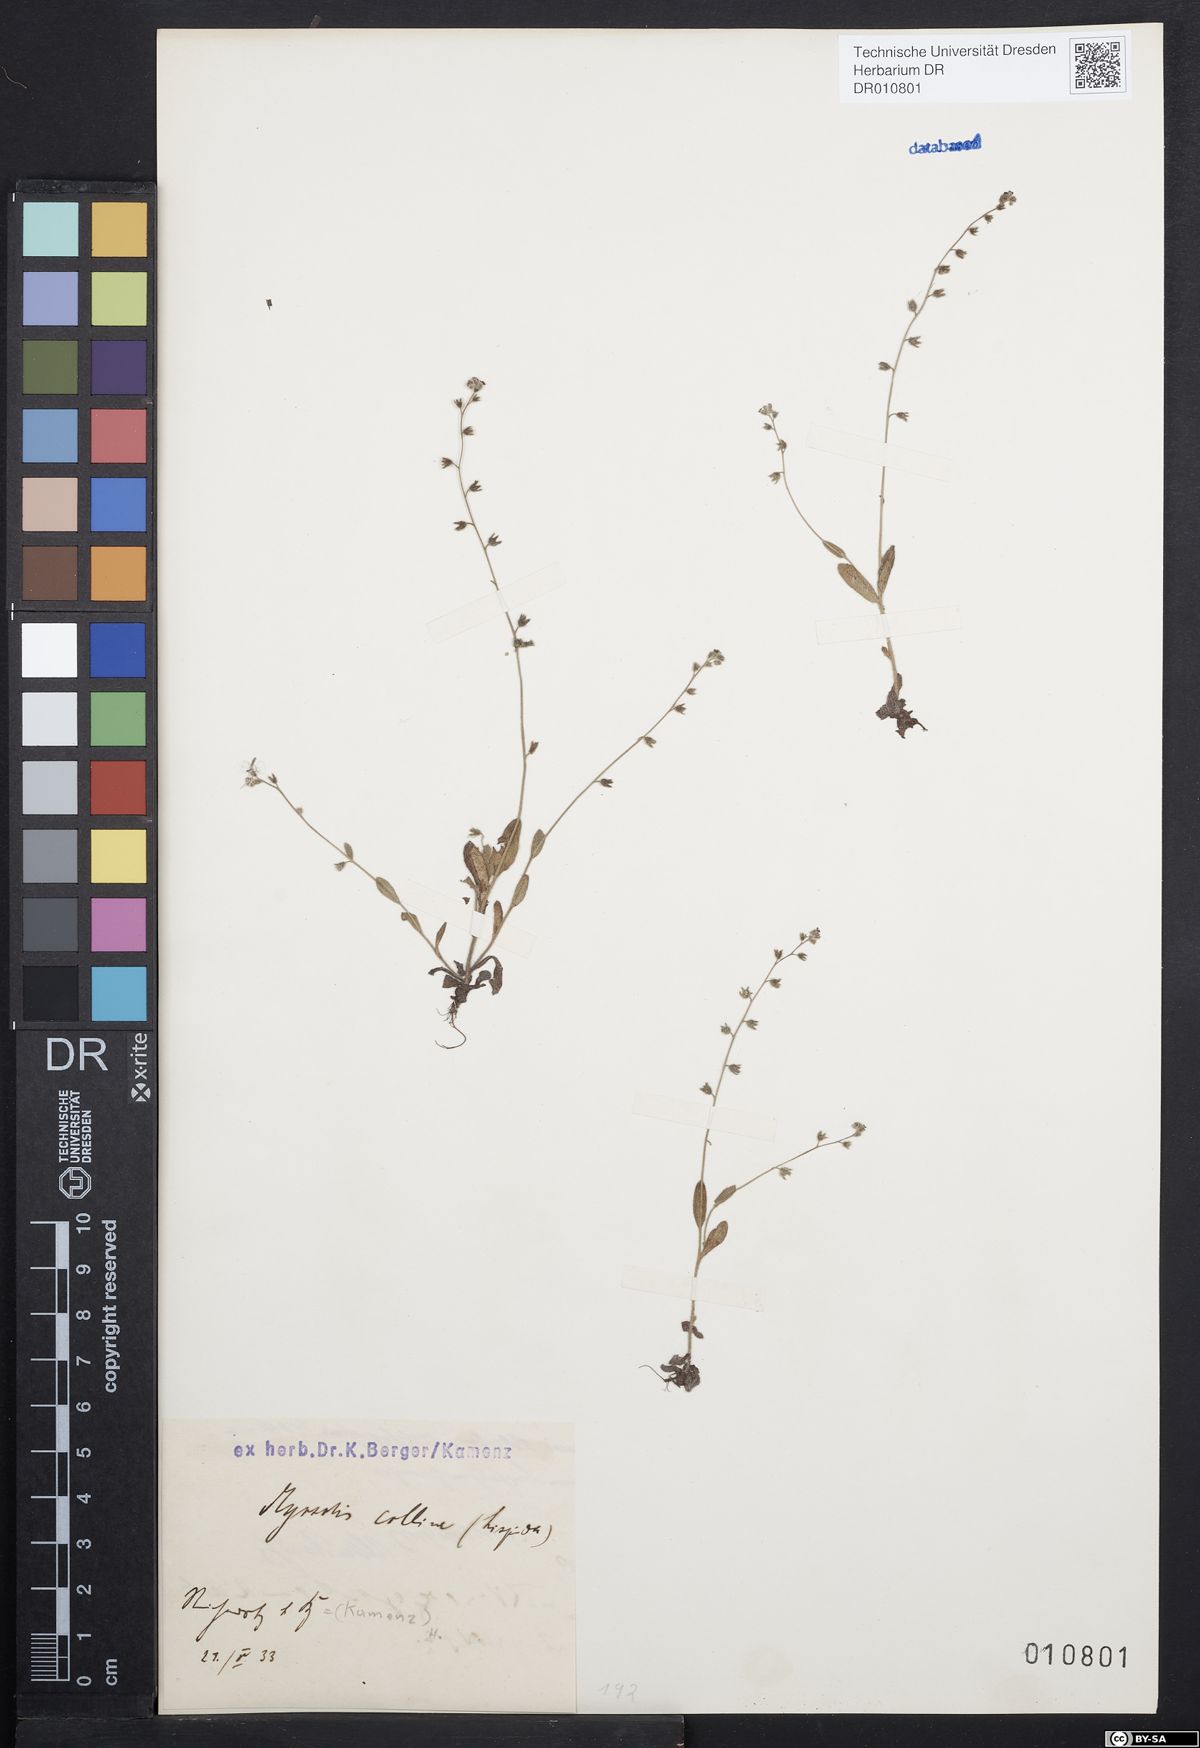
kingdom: Plantae
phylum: Tracheophyta
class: Magnoliopsida
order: Boraginales
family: Boraginaceae
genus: Myosotis
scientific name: Myosotis ramosissima
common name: Early forget-me-not
